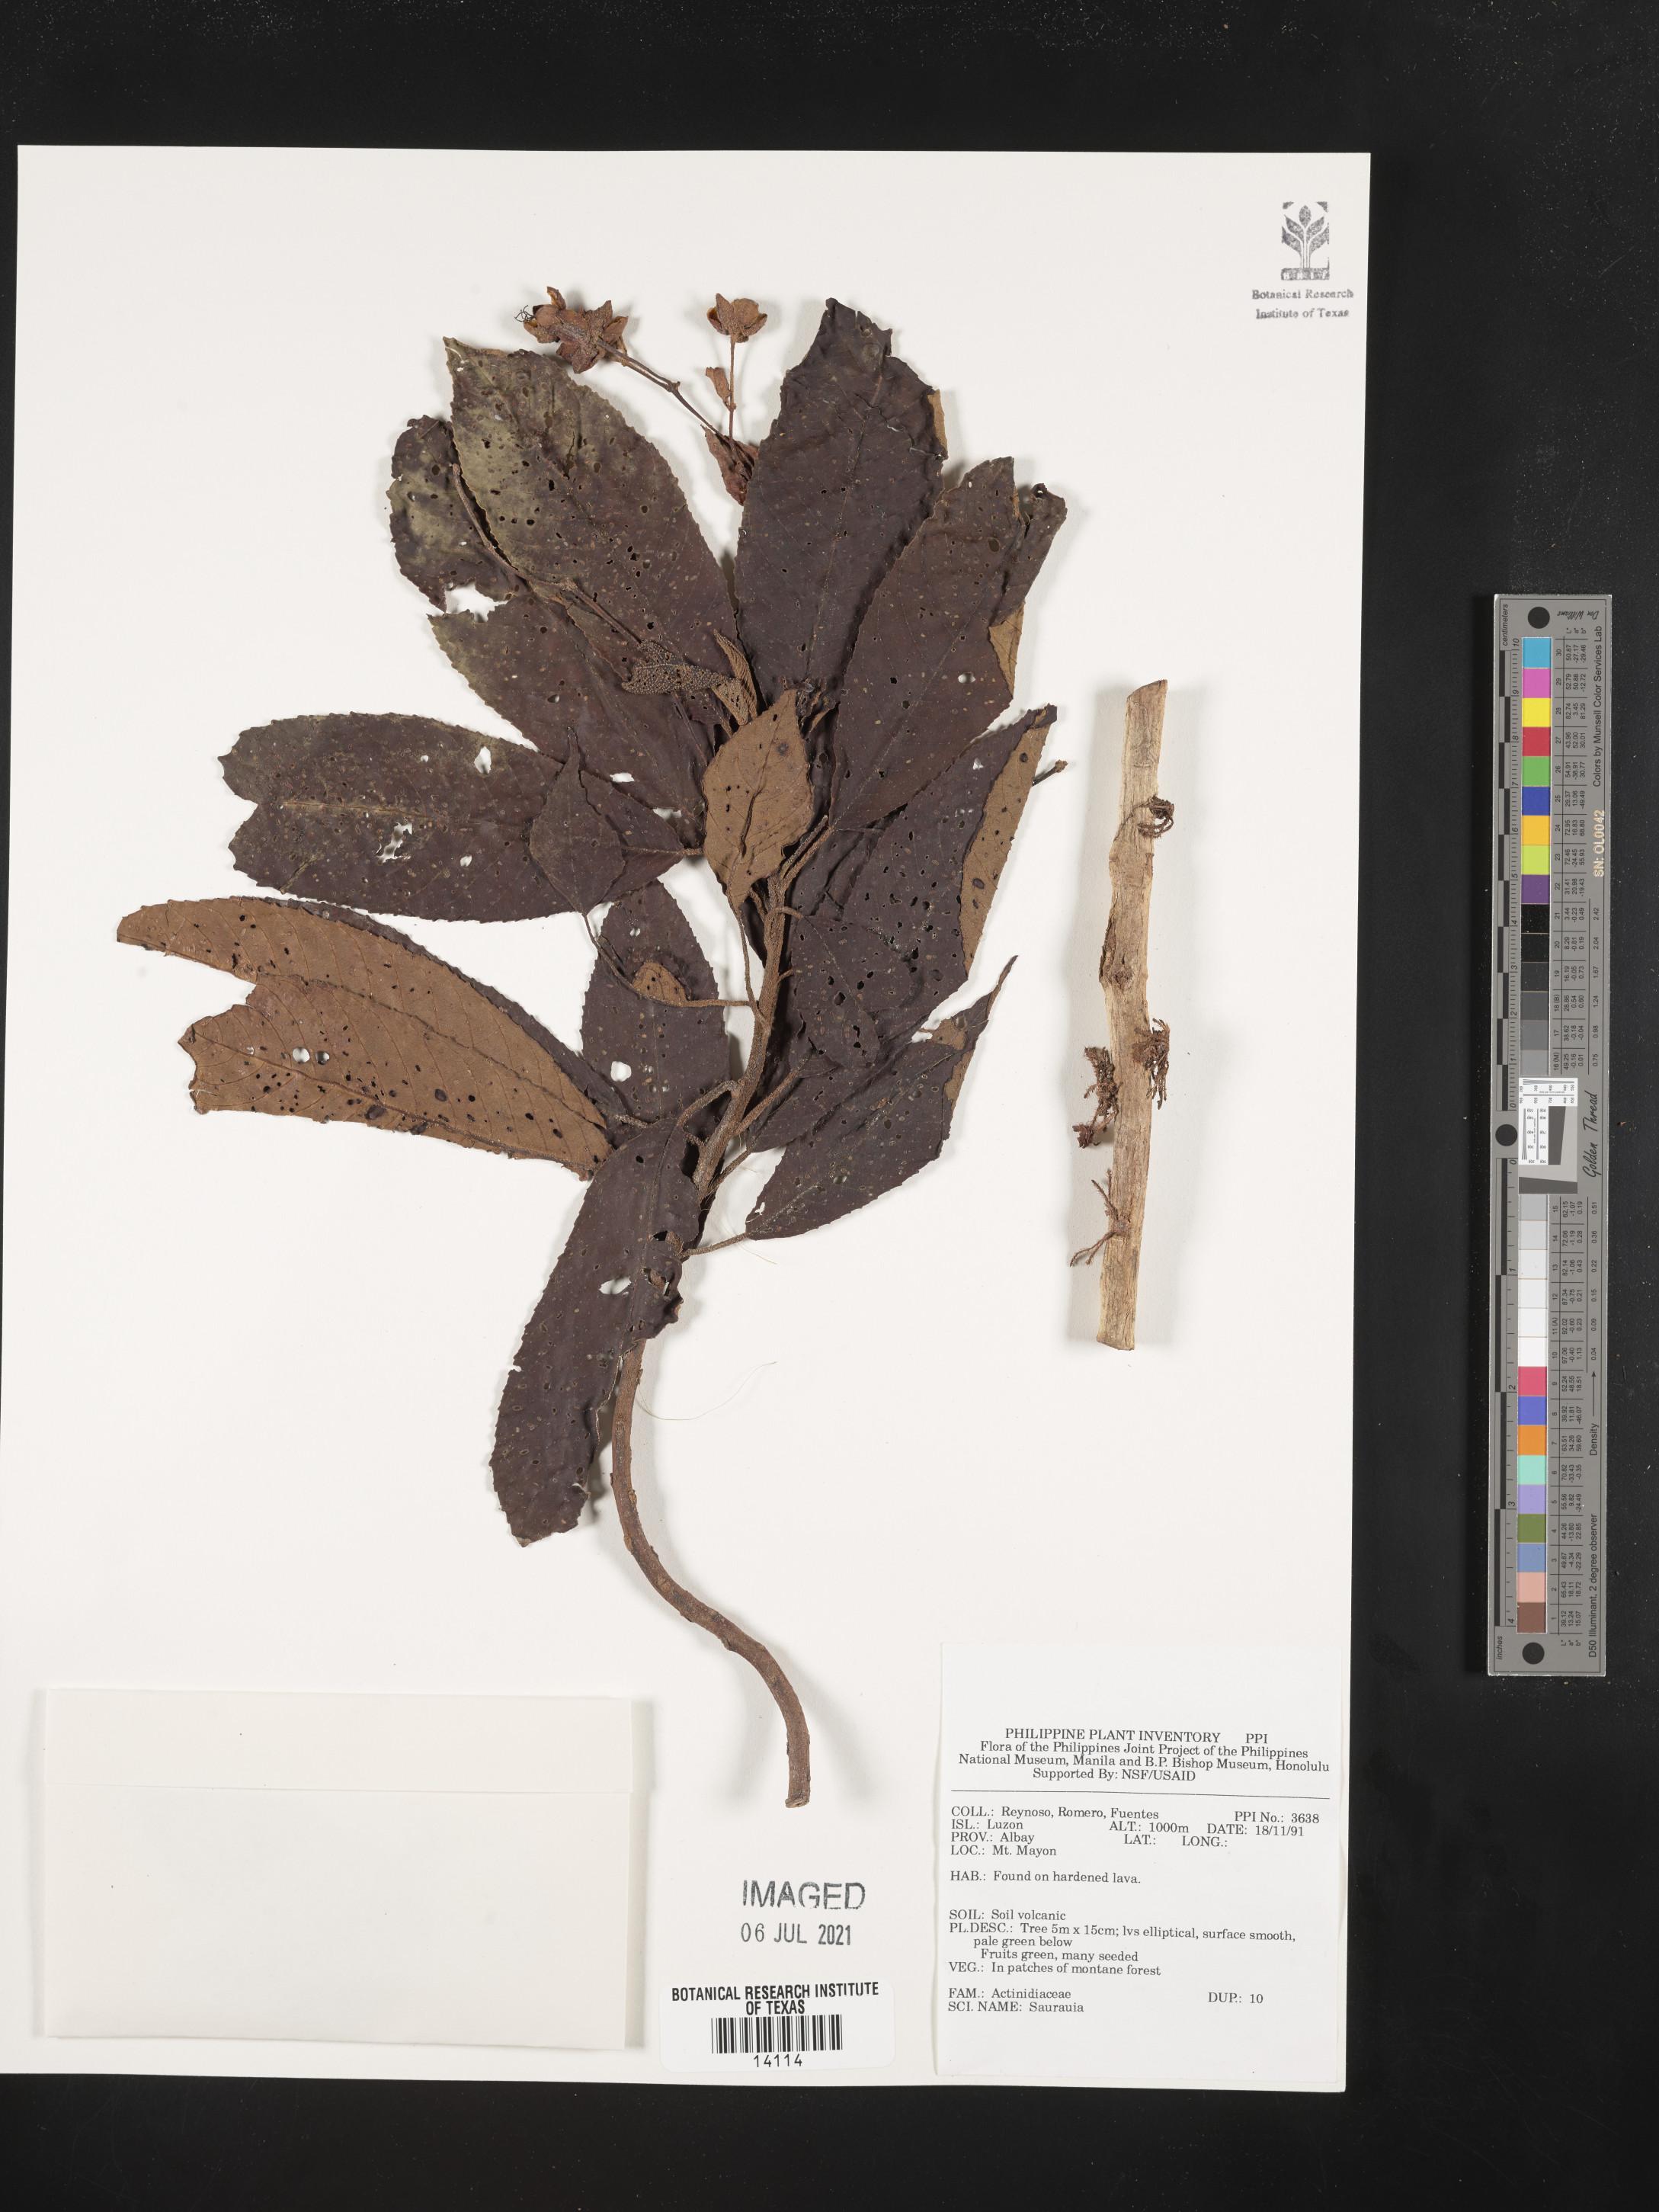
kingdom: Plantae
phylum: Tracheophyta
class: Magnoliopsida
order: Ericales
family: Actinidiaceae
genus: Saurauia
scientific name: Saurauia
